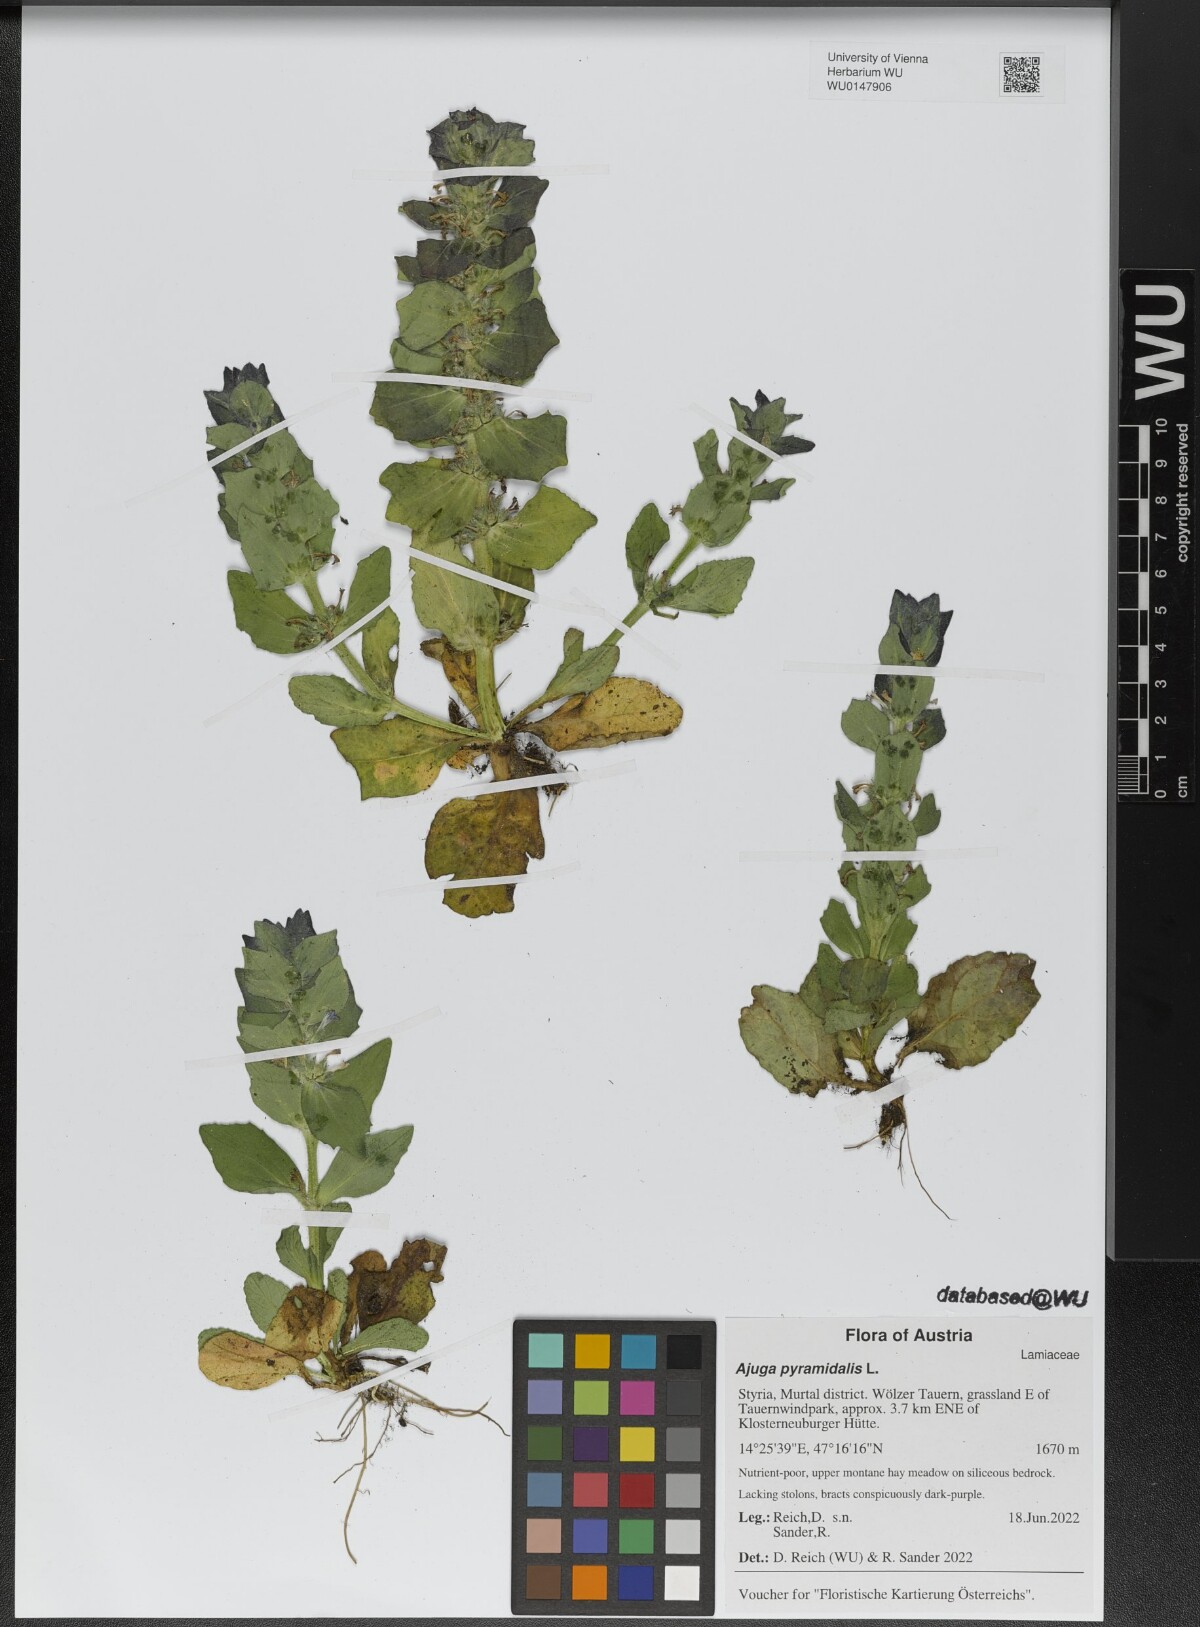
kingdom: Plantae
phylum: Tracheophyta
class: Magnoliopsida
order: Lamiales
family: Lamiaceae
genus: Ajuga
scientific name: Ajuga pyramidalis
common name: Pyramid bugle
